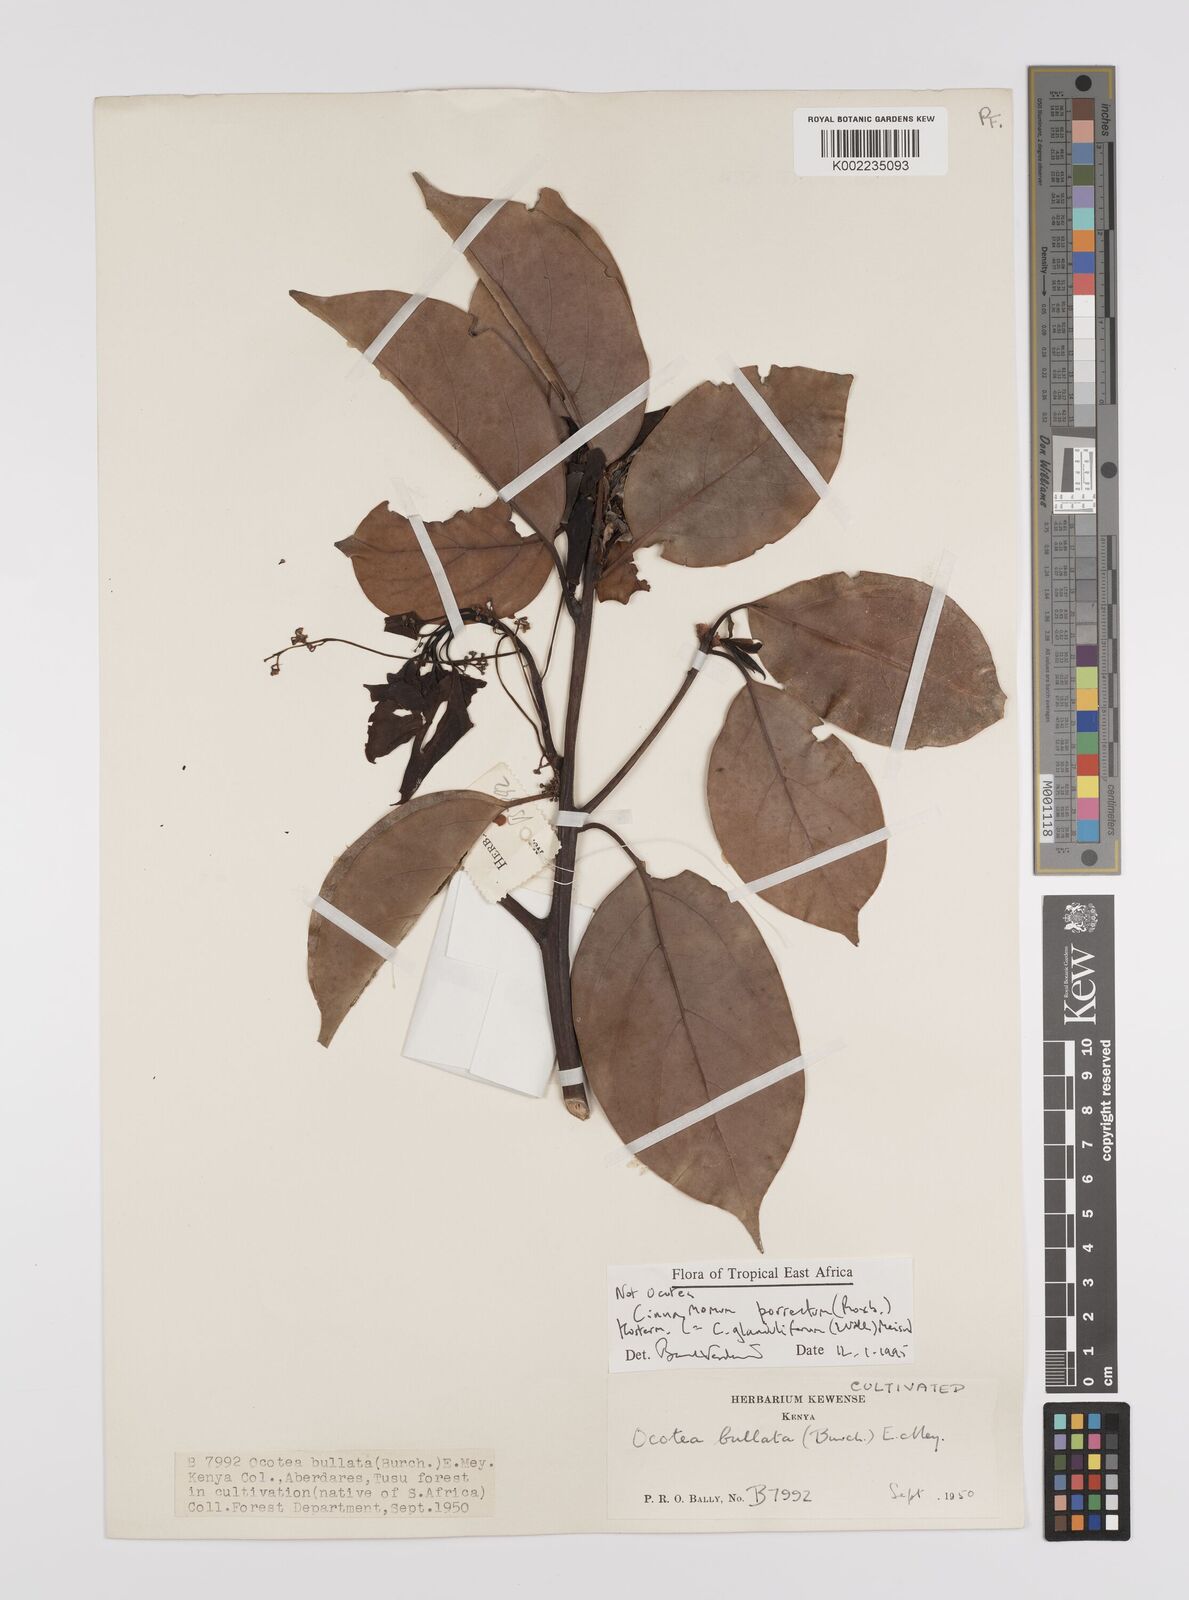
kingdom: Plantae
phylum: Tracheophyta
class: Magnoliopsida
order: Laurales
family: Lauraceae
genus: Cinnamomum
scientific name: Cinnamomum verum
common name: Cinnamon
